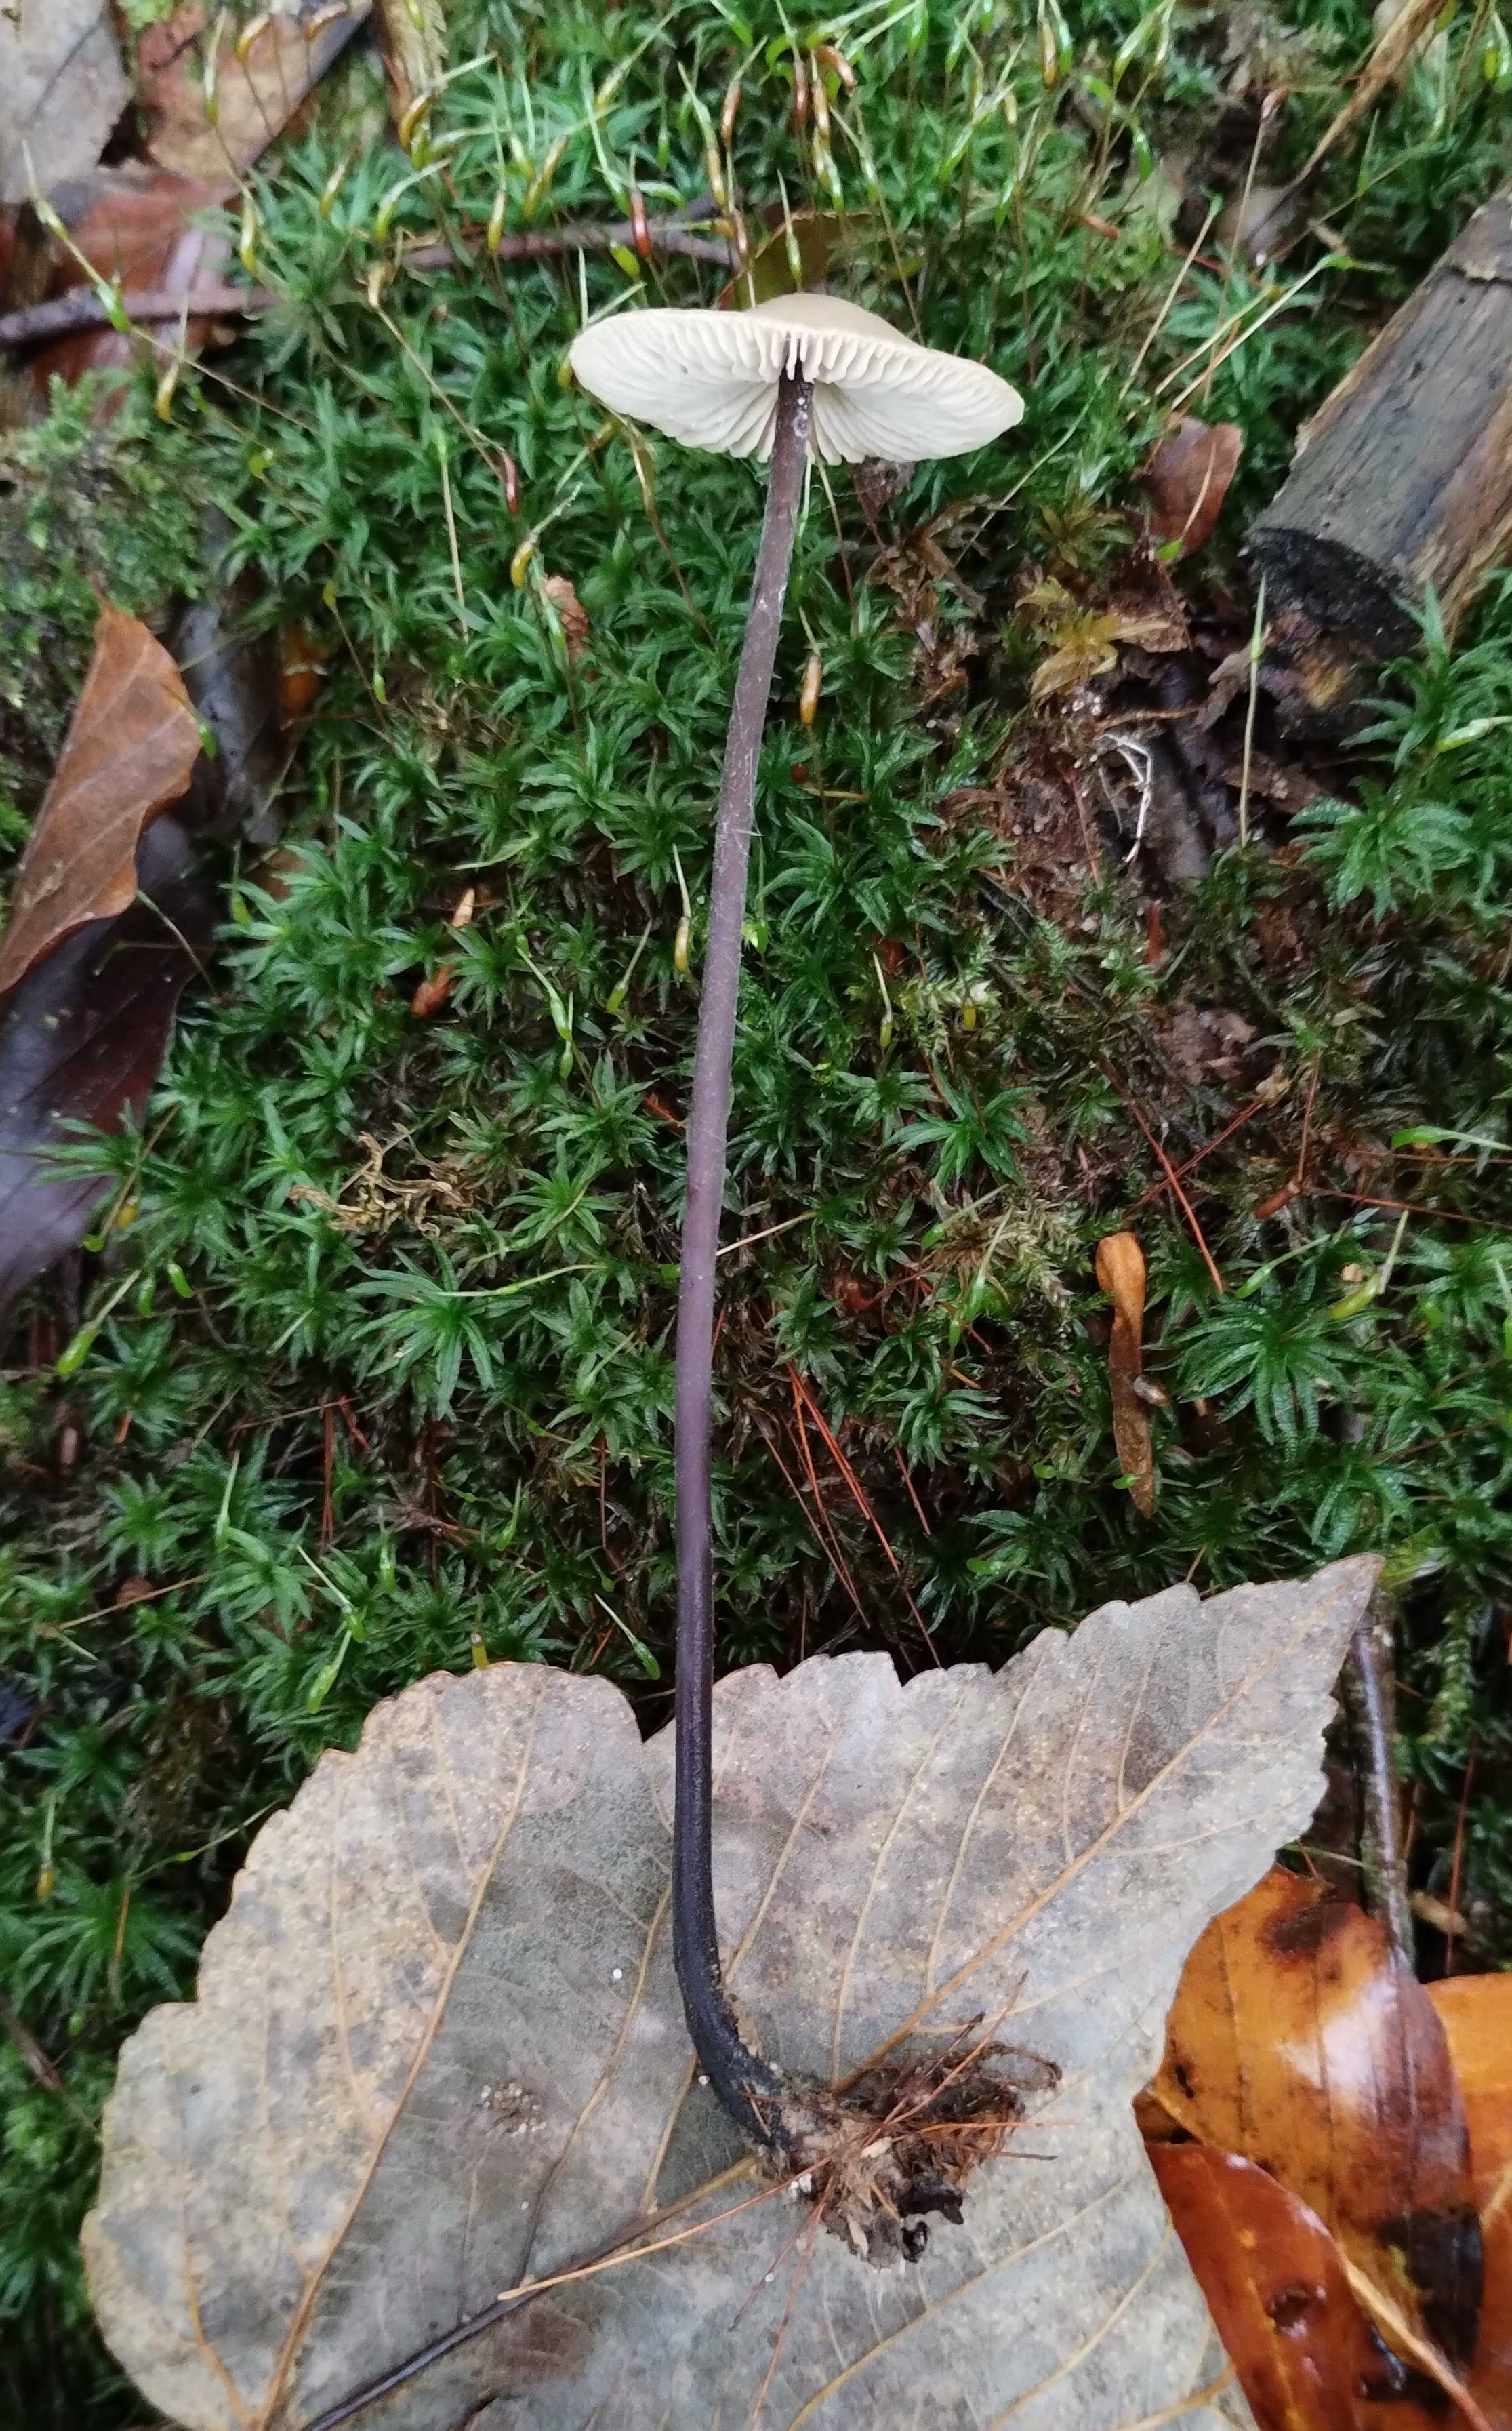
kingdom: Fungi
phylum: Basidiomycota
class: Agaricomycetes
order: Agaricales
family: Omphalotaceae
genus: Mycetinis
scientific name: Mycetinis alliaceus
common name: stor løghat
